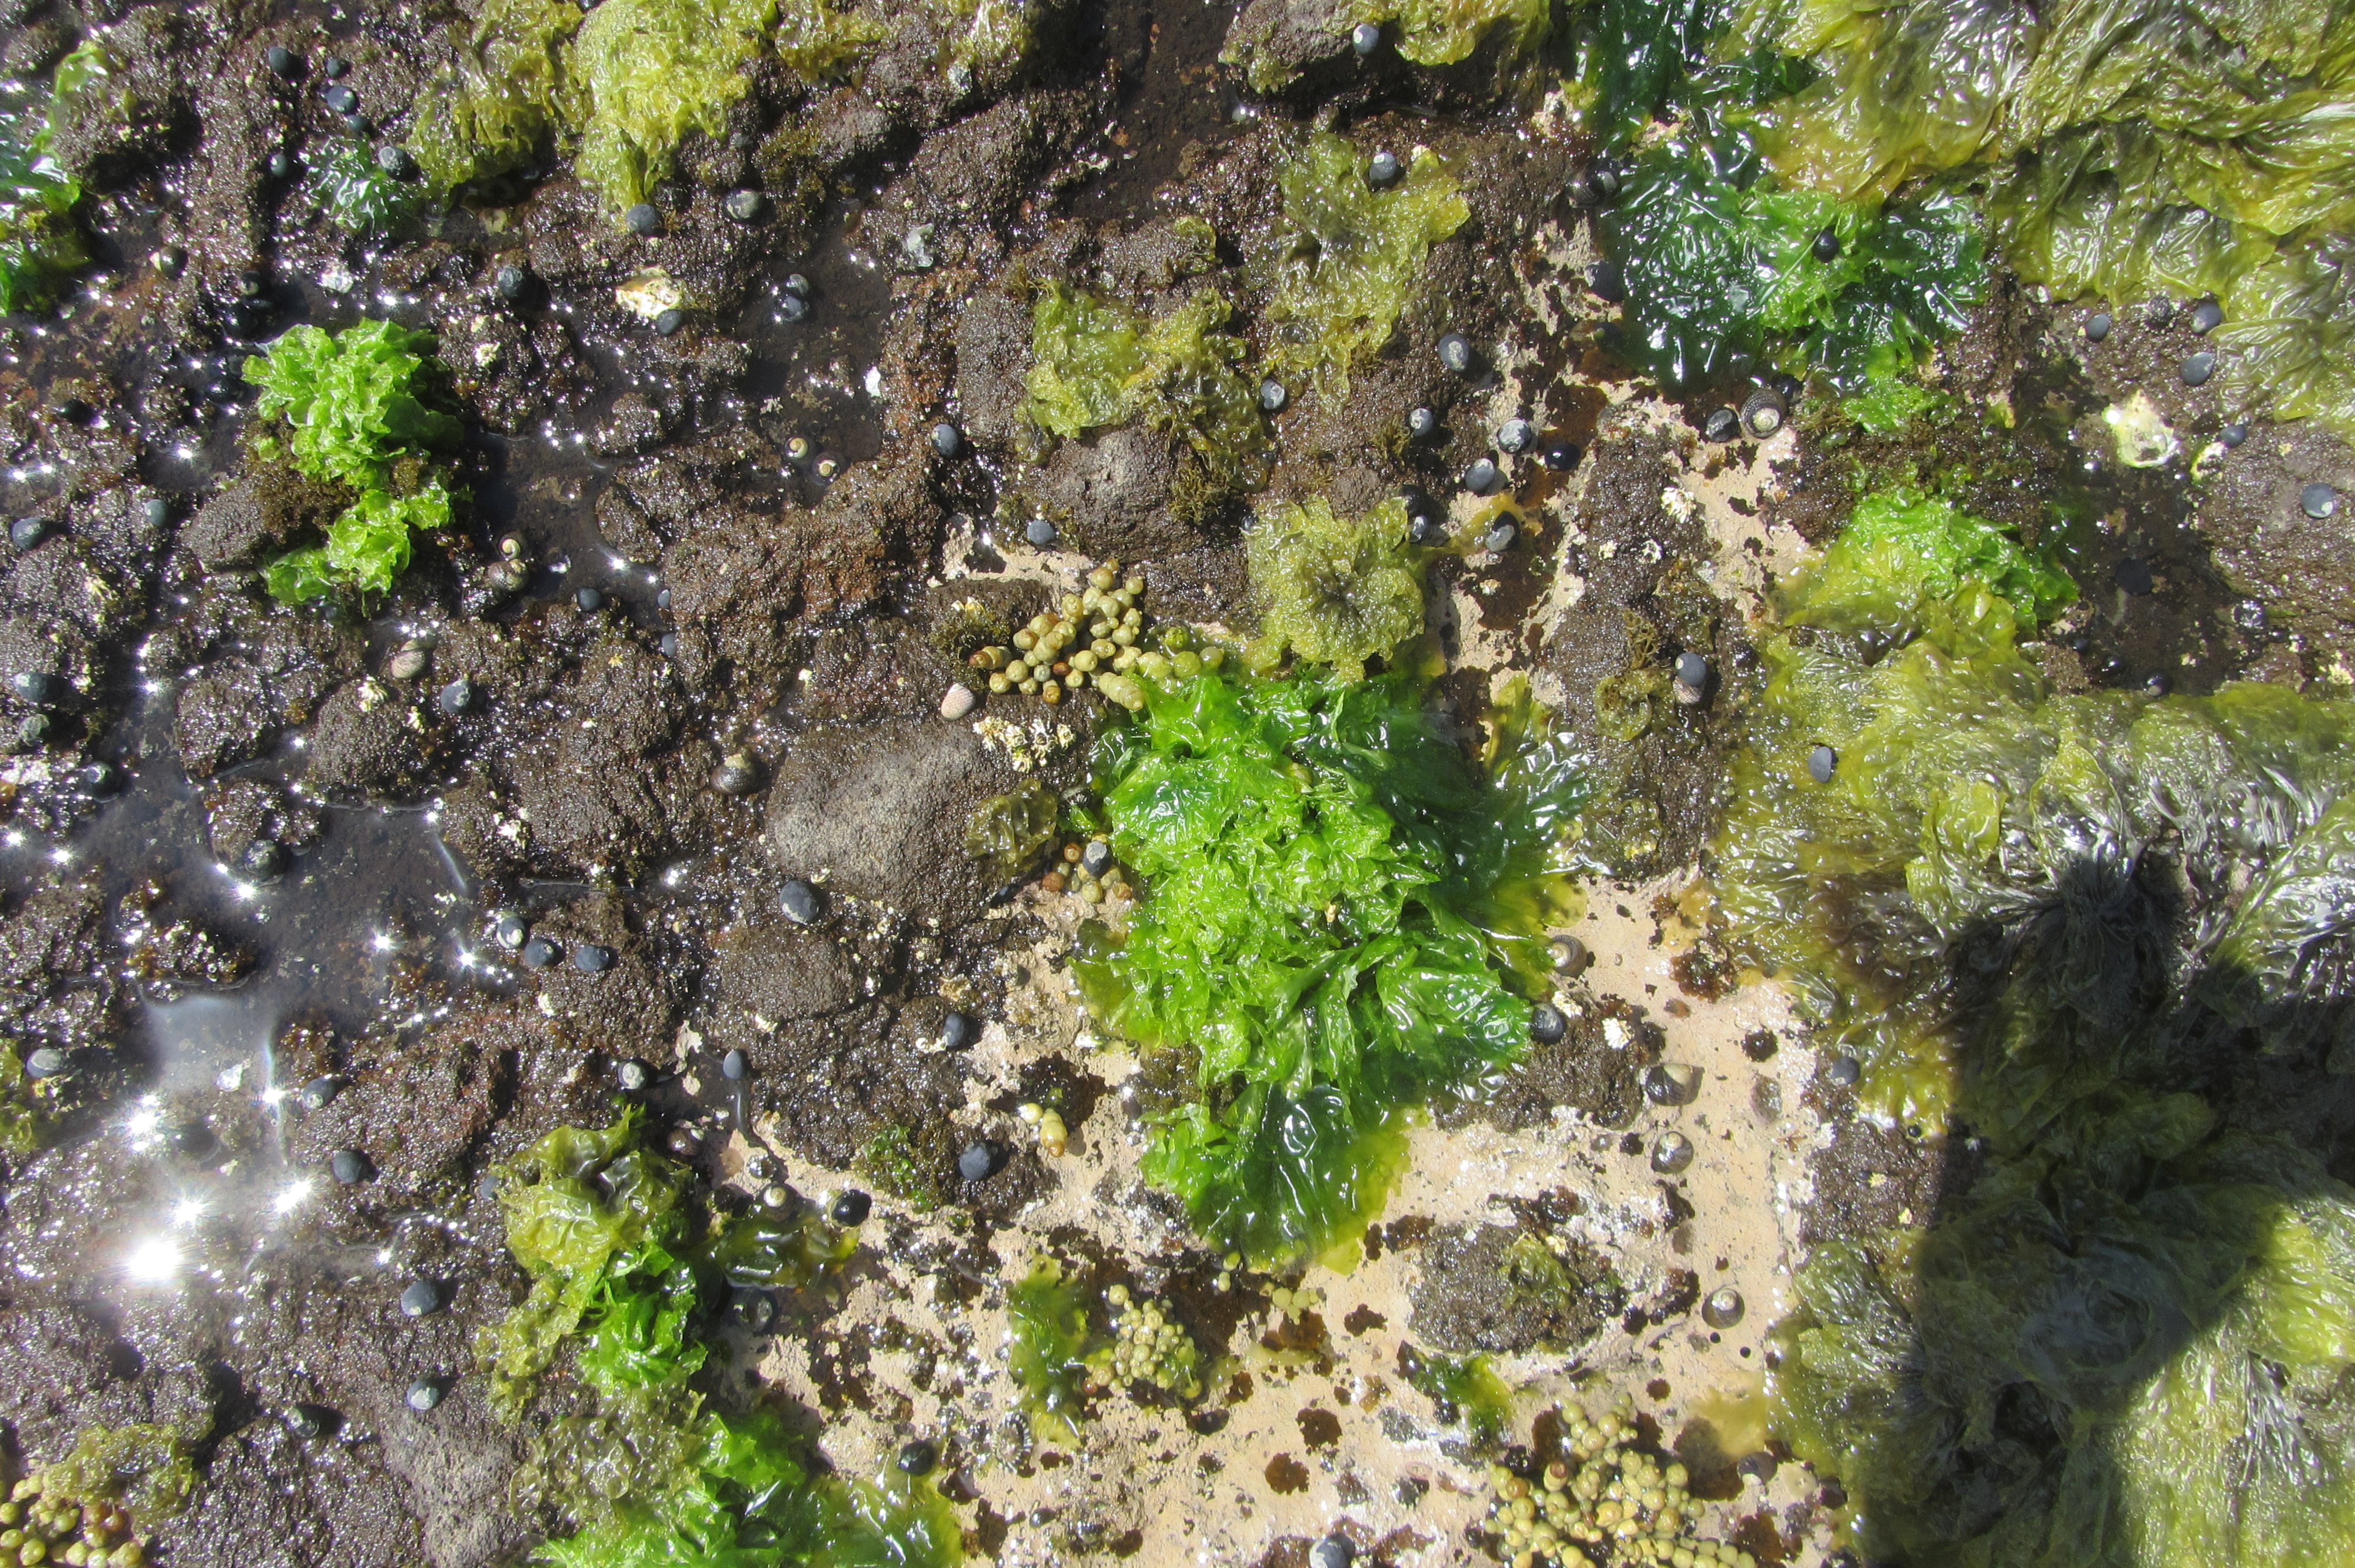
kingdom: Plantae
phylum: Chlorophyta
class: Ulvophyceae
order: Ulvales
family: Ulvaceae
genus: Ulva
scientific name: Ulva
